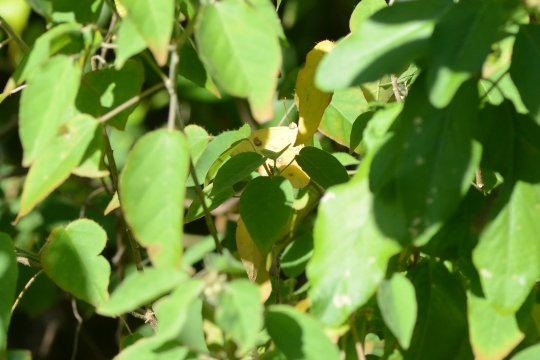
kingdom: Animalia
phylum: Arthropoda
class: Insecta
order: Lepidoptera
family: Pieridae
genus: Phoebis
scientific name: Phoebis sennae
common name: Cloudless Sulphur
